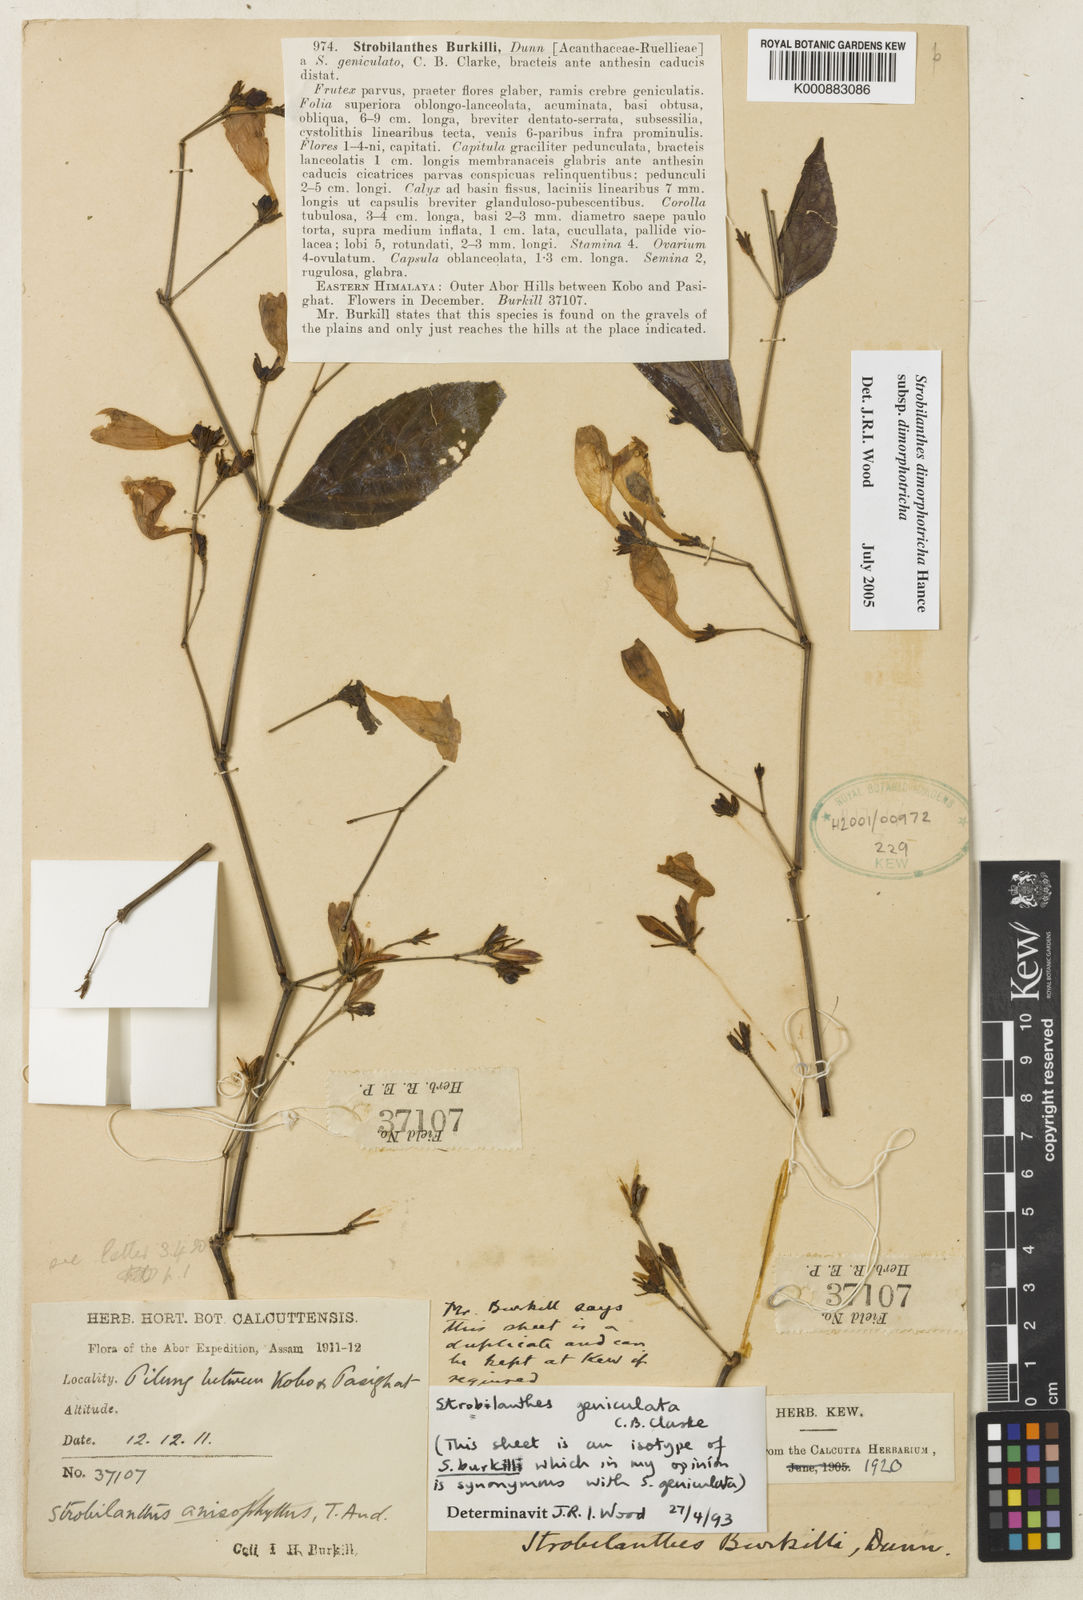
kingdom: Plantae
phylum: Tracheophyta
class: Magnoliopsida
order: Lamiales
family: Acanthaceae
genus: Strobilanthes
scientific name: Strobilanthes dimorphotricha
